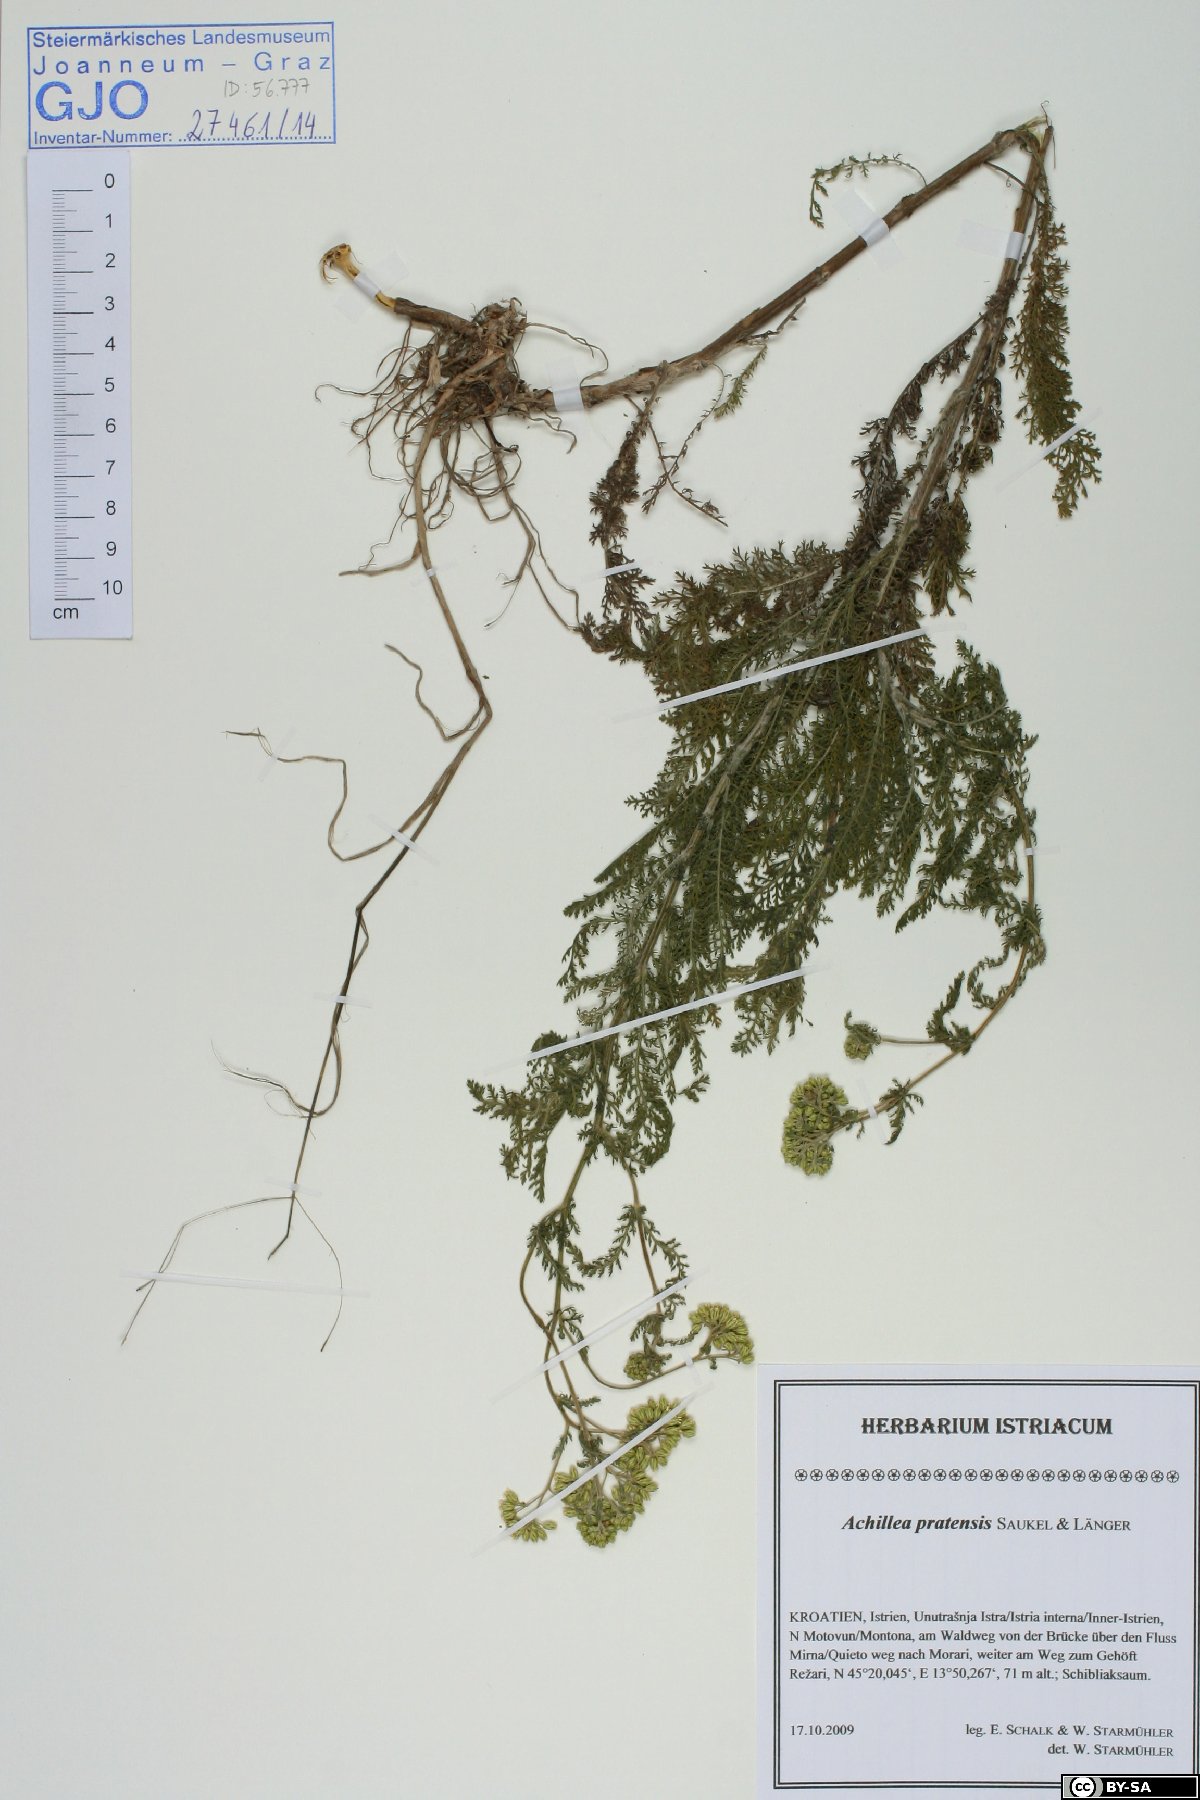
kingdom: Plantae
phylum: Tracheophyta
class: Magnoliopsida
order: Asterales
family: Asteraceae
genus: Achillea
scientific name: Achillea pratensis
